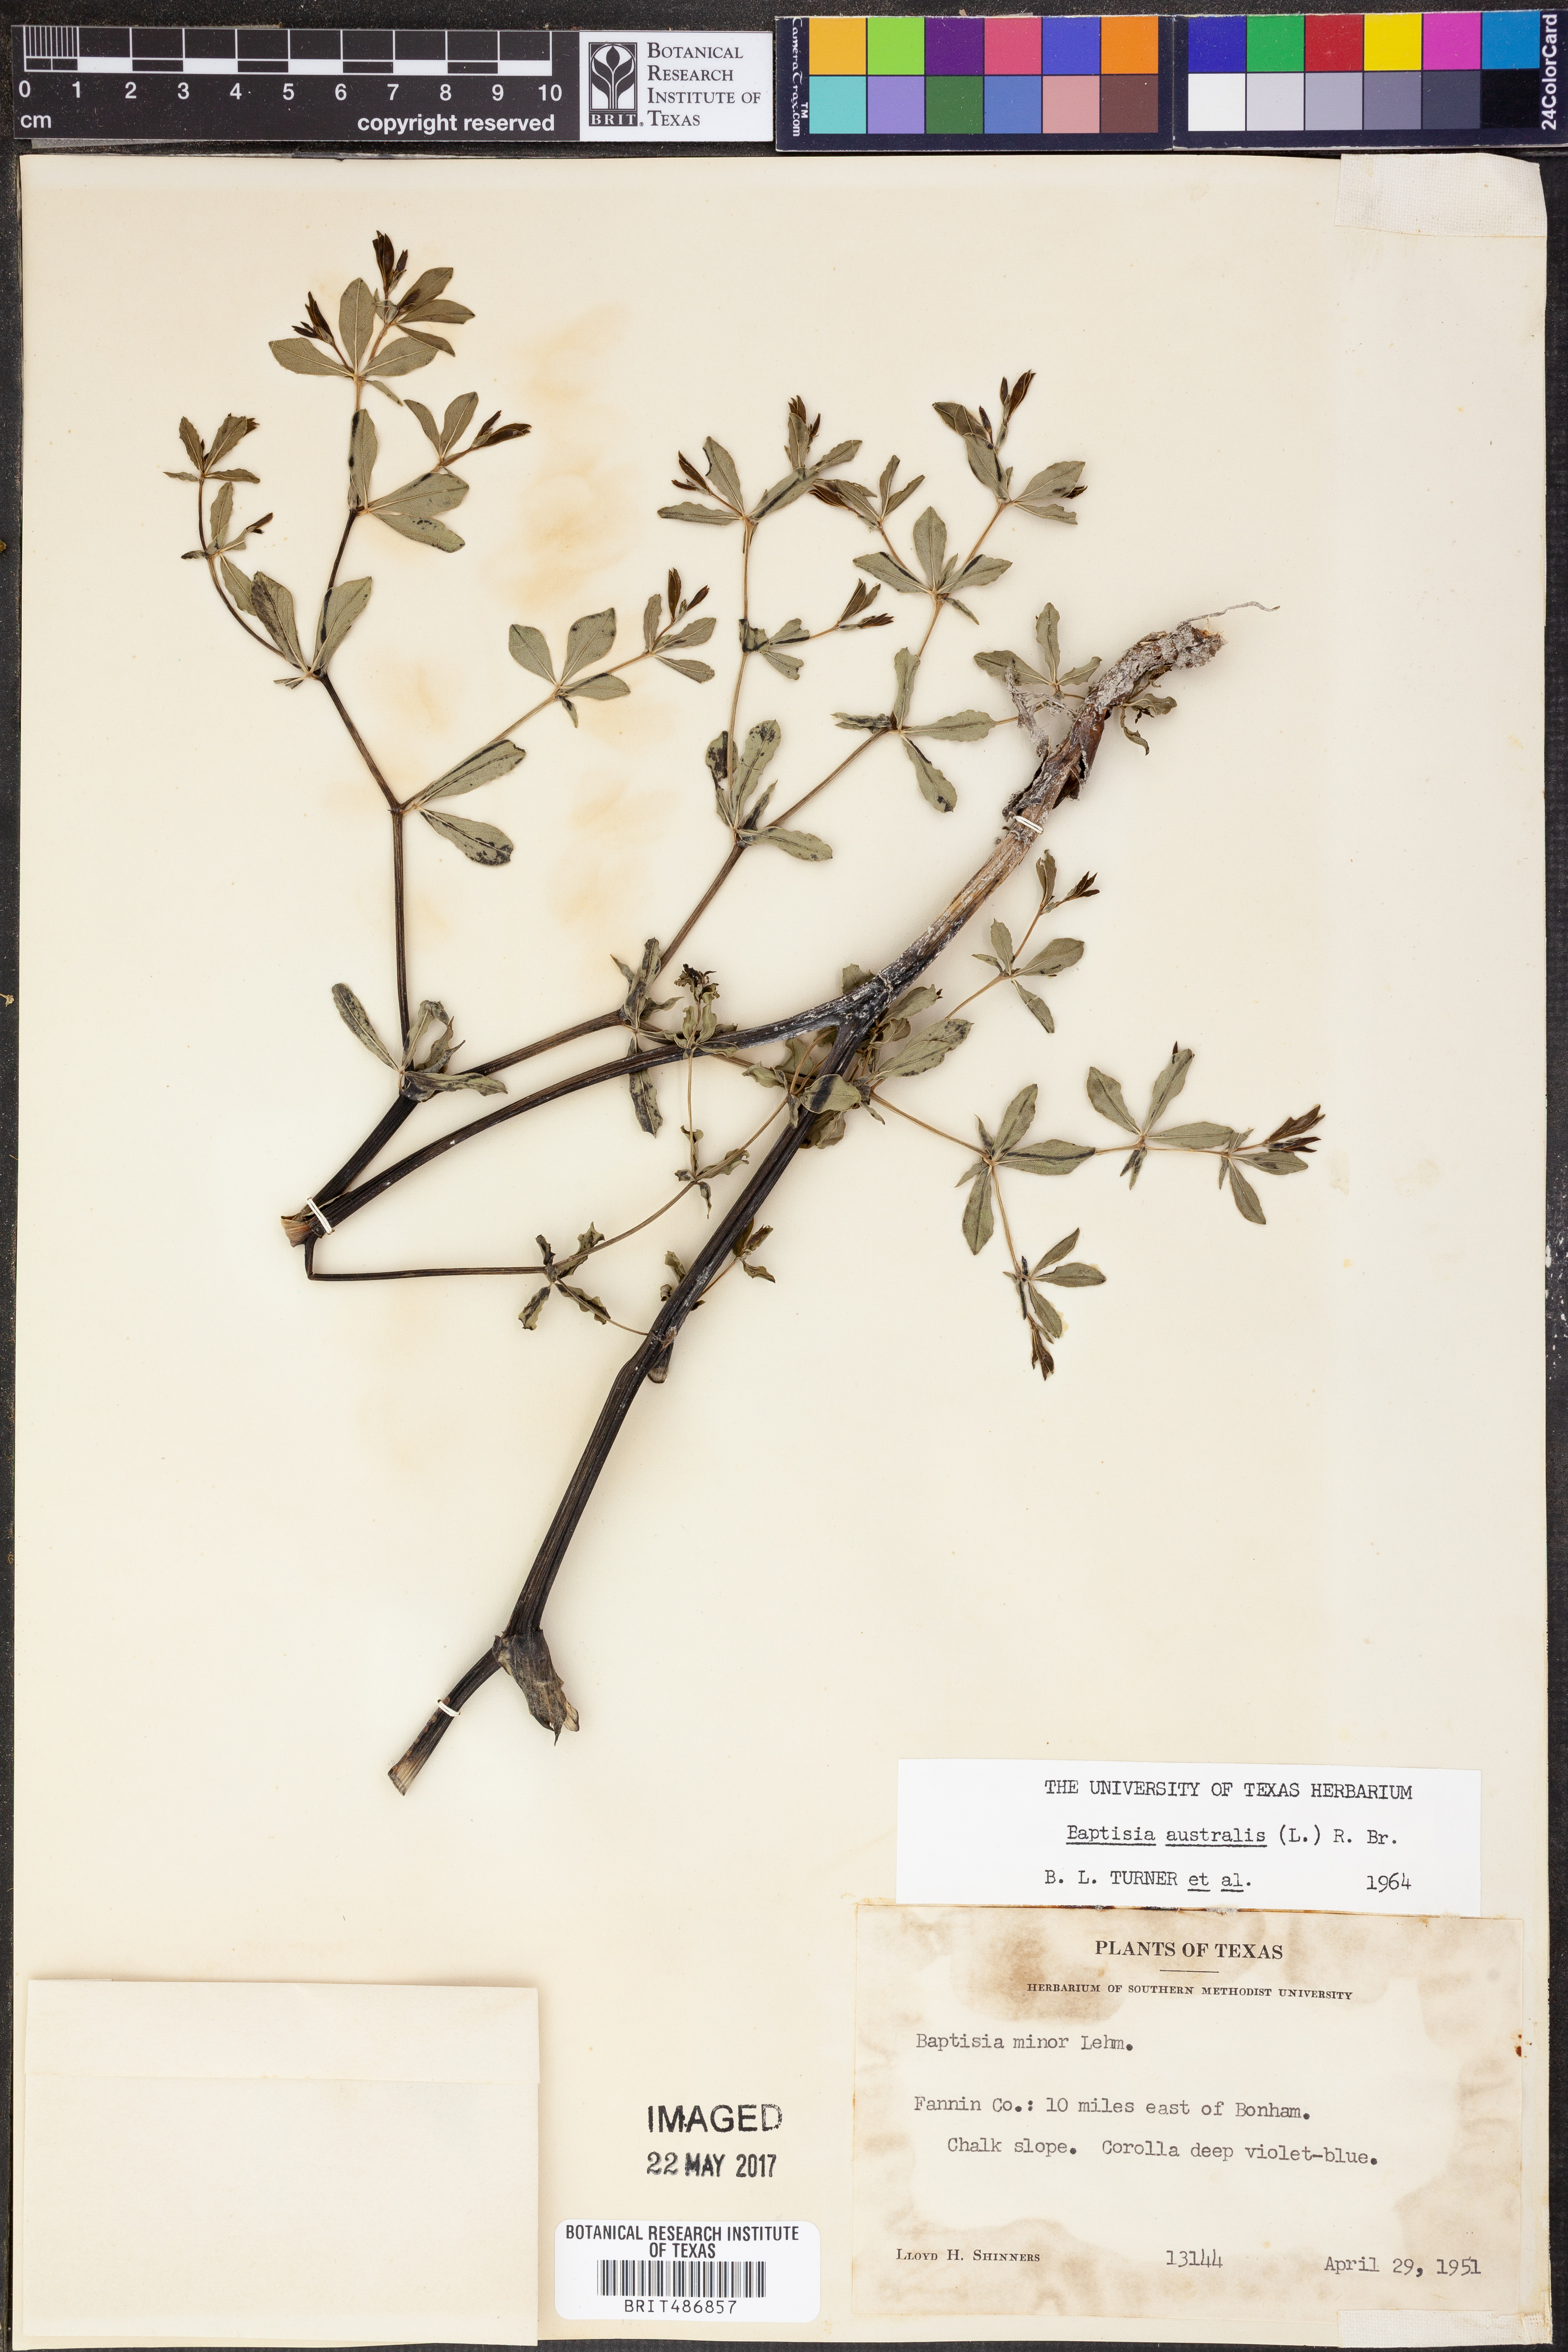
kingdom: Plantae
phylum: Tracheophyta
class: Magnoliopsida
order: Fabales
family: Fabaceae
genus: Baptisia
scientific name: Baptisia australis
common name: Blue false indigo
